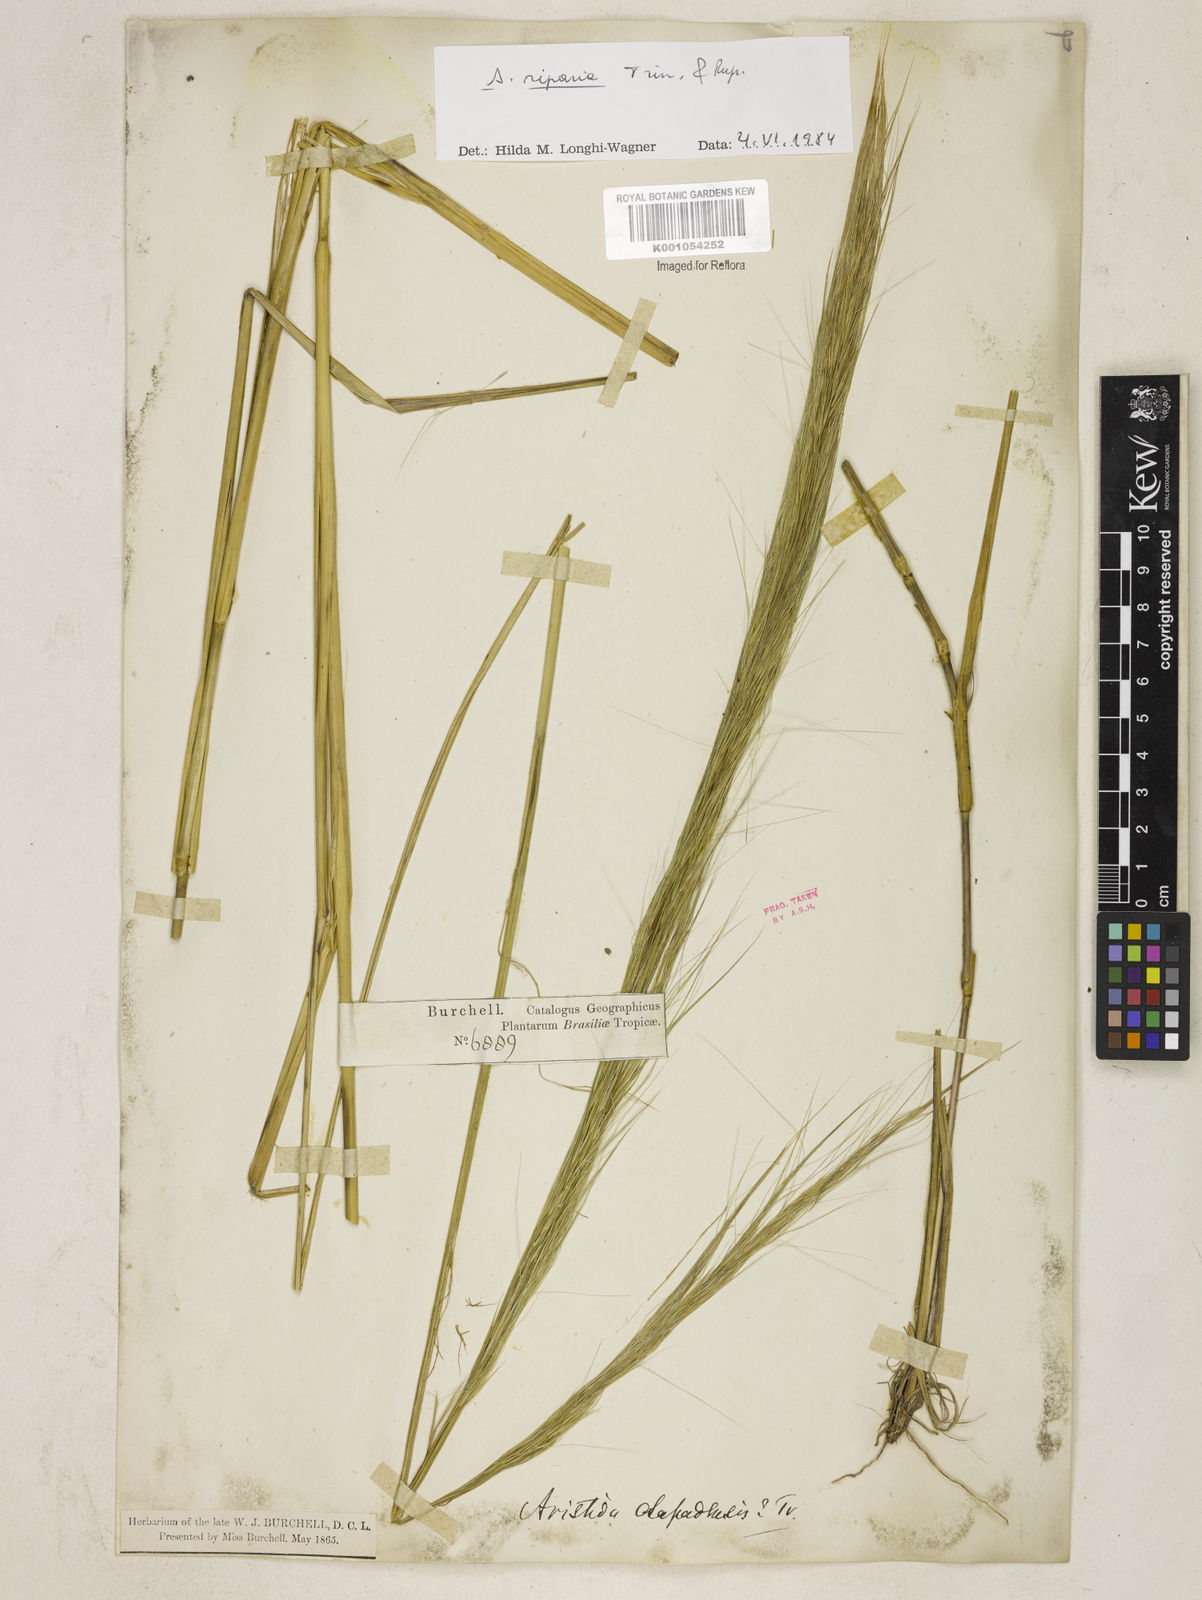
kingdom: Plantae
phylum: Tracheophyta
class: Liliopsida
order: Poales
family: Poaceae
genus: Aristida
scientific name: Aristida riparia
